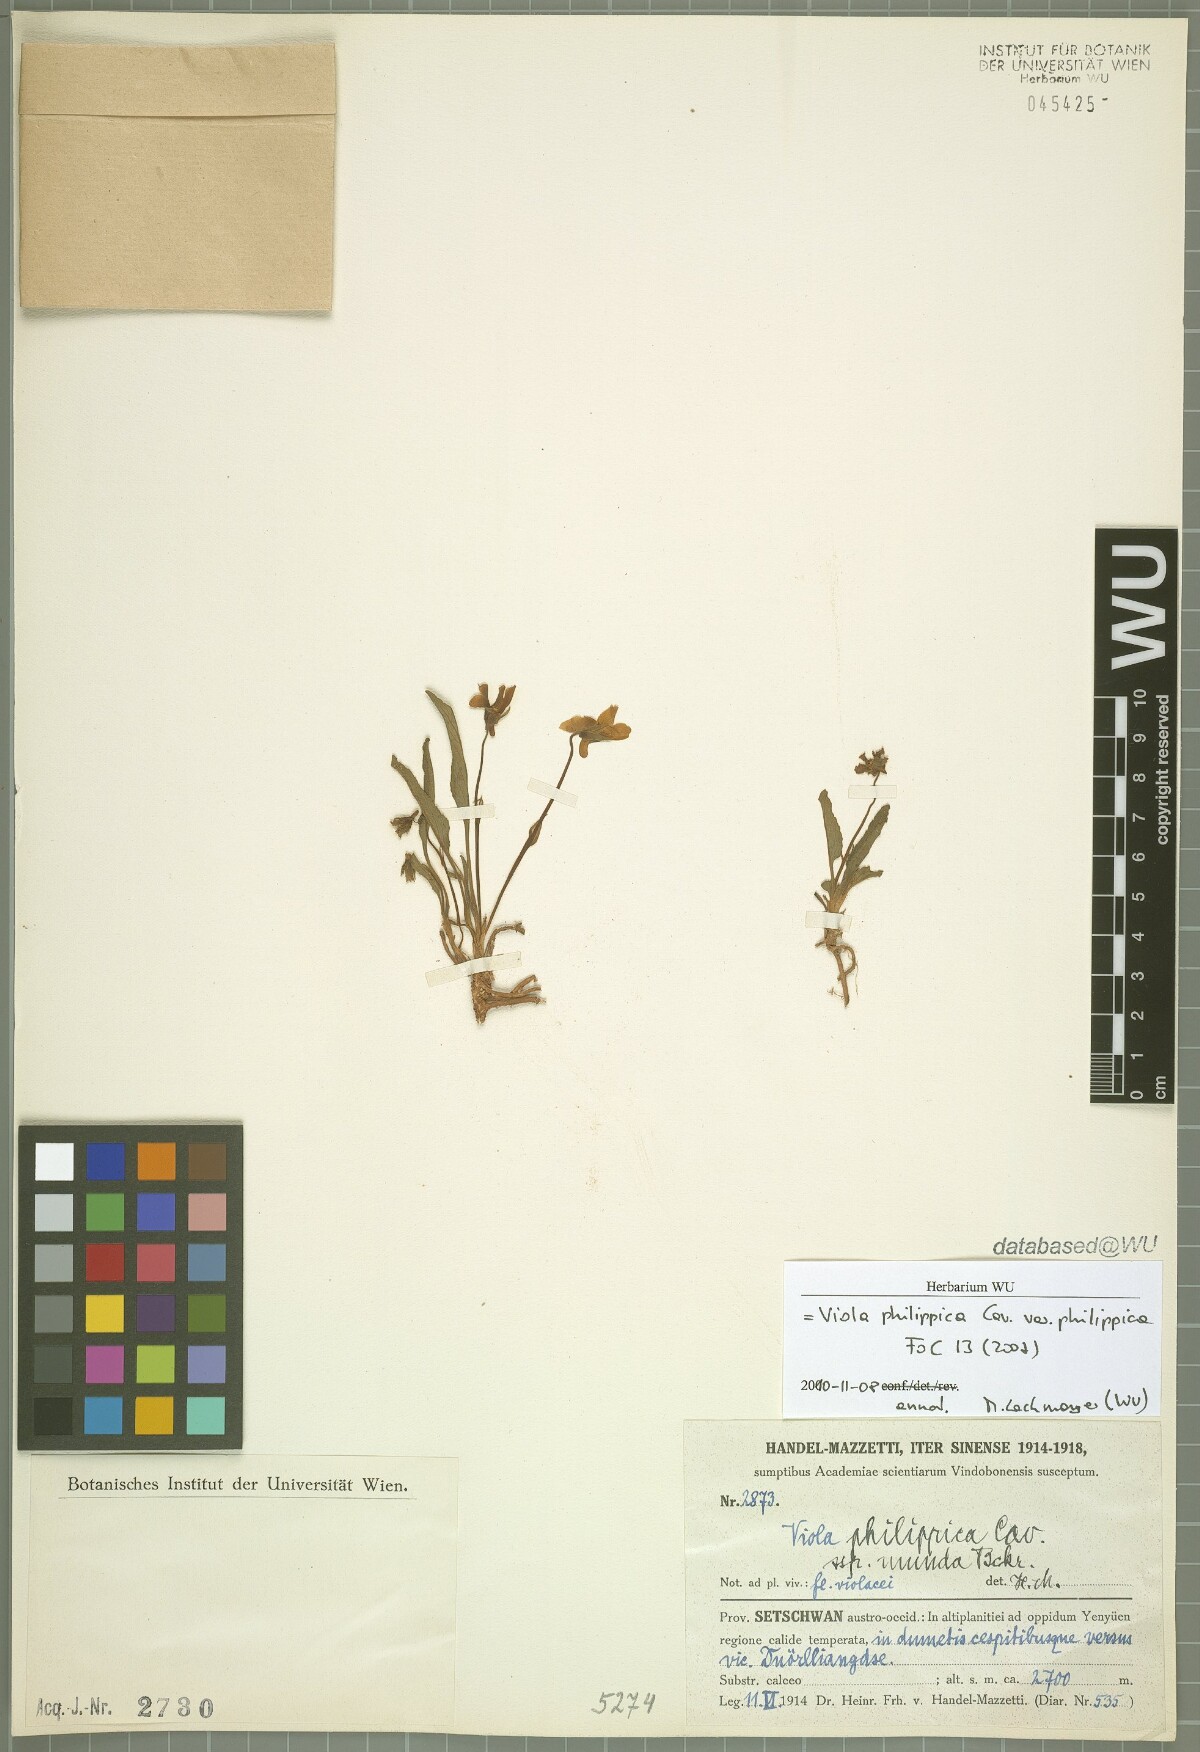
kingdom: Plantae
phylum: Tracheophyta
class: Magnoliopsida
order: Malpighiales
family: Violaceae
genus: Viola
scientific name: Viola philippica
